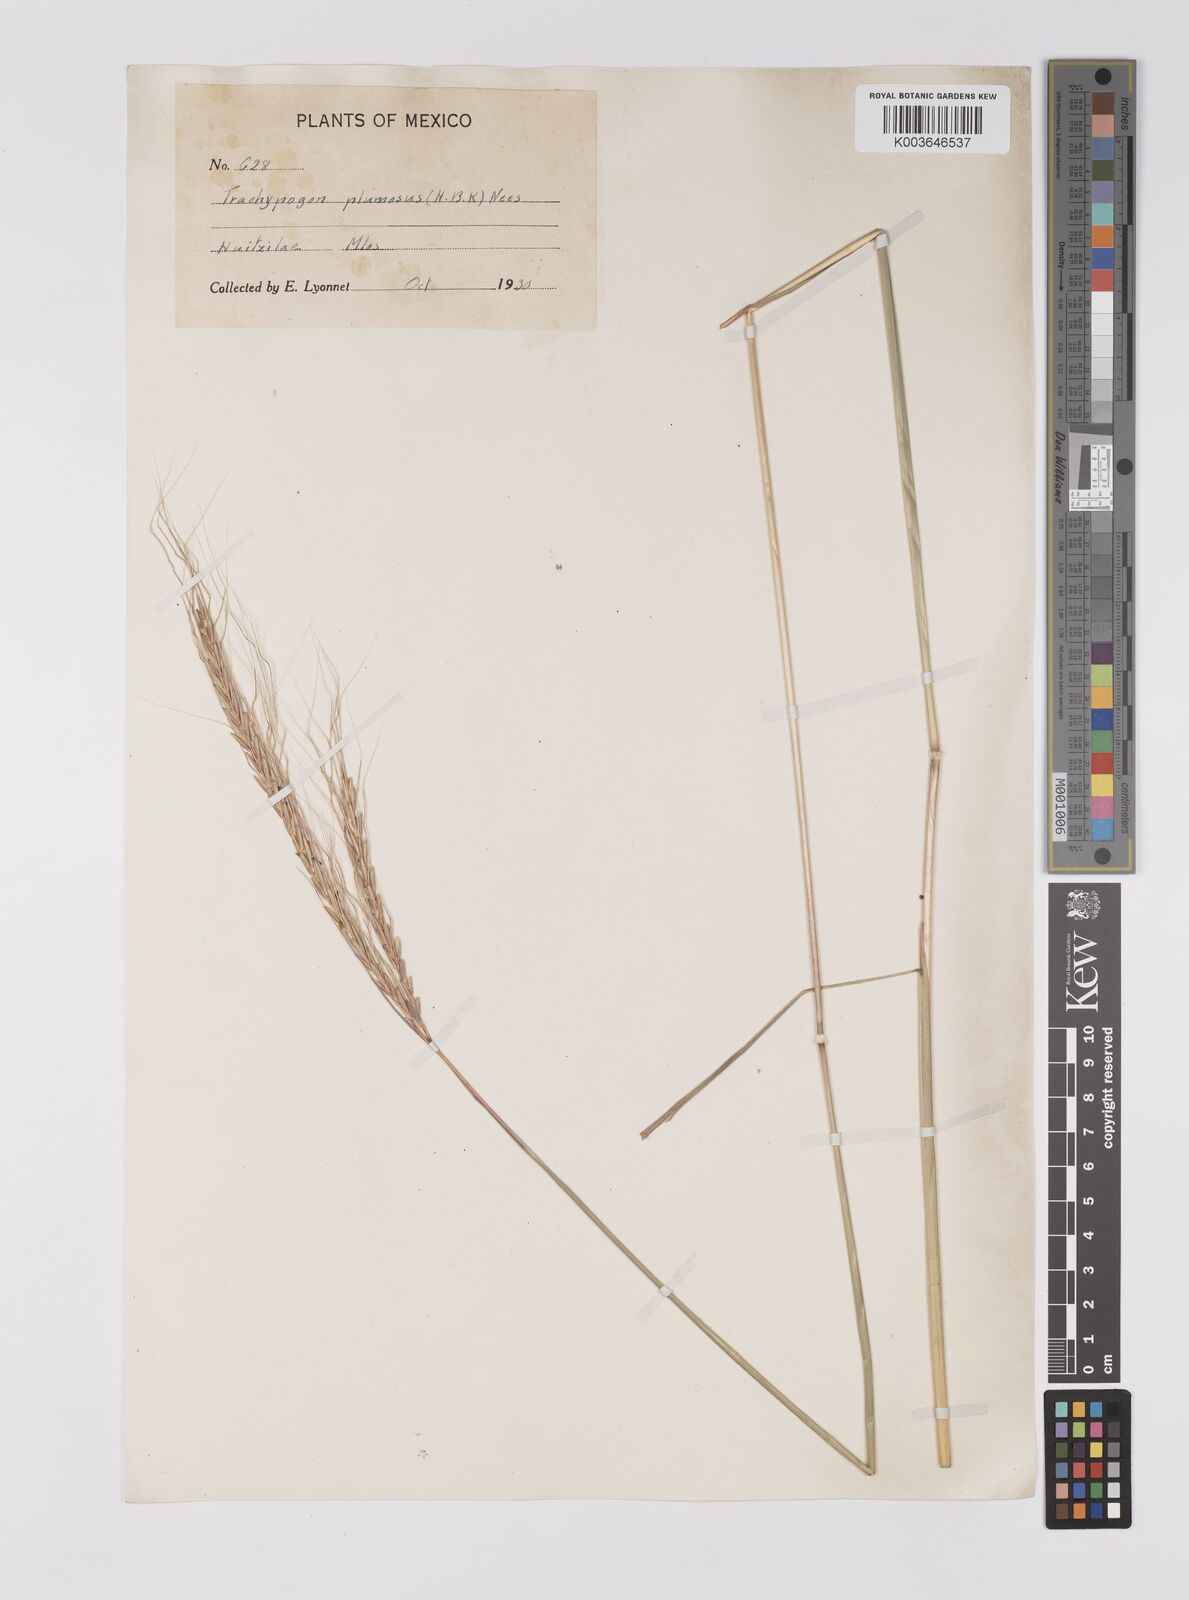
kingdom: Plantae
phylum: Tracheophyta
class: Liliopsida
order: Poales
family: Poaceae
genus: Trachypogon
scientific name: Trachypogon spicatus
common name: Crinkle-awn
